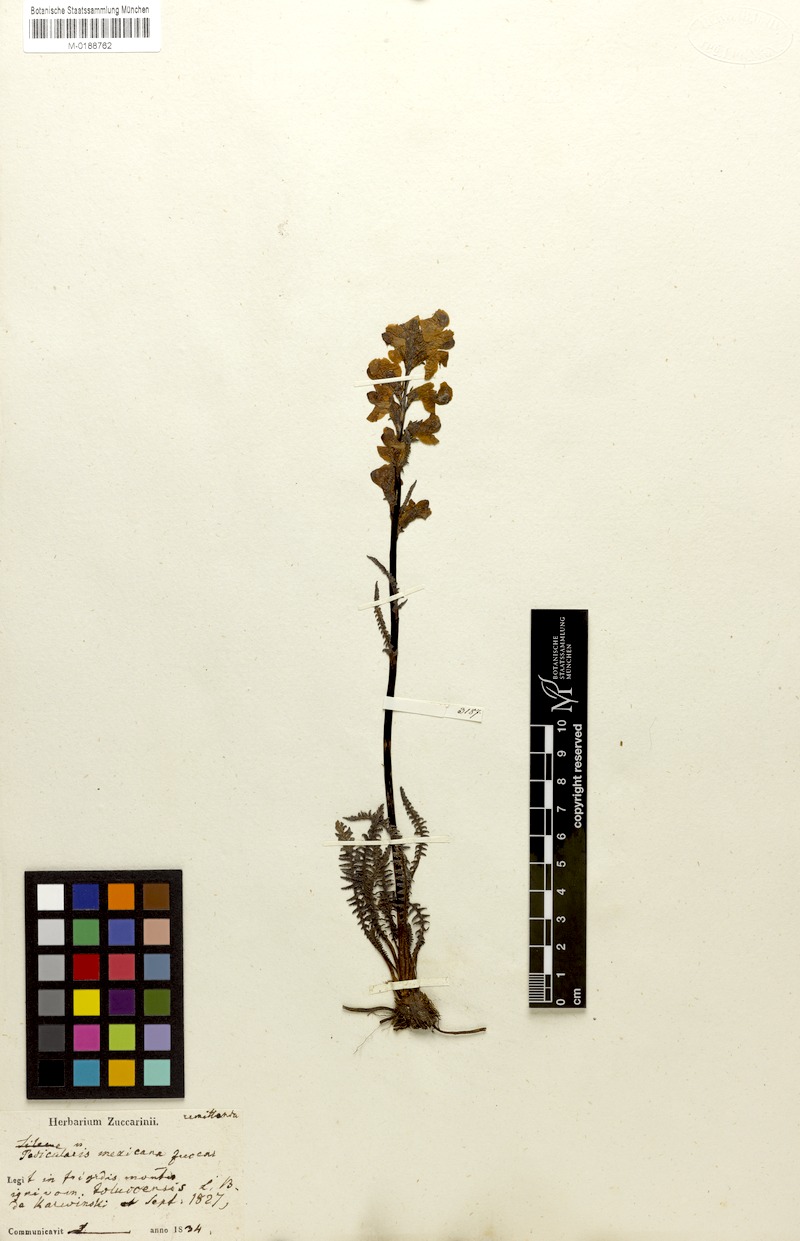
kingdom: Plantae
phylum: Tracheophyta
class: Magnoliopsida
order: Lamiales
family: Orobanchaceae
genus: Pedicularis
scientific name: Pedicularis orizabae
